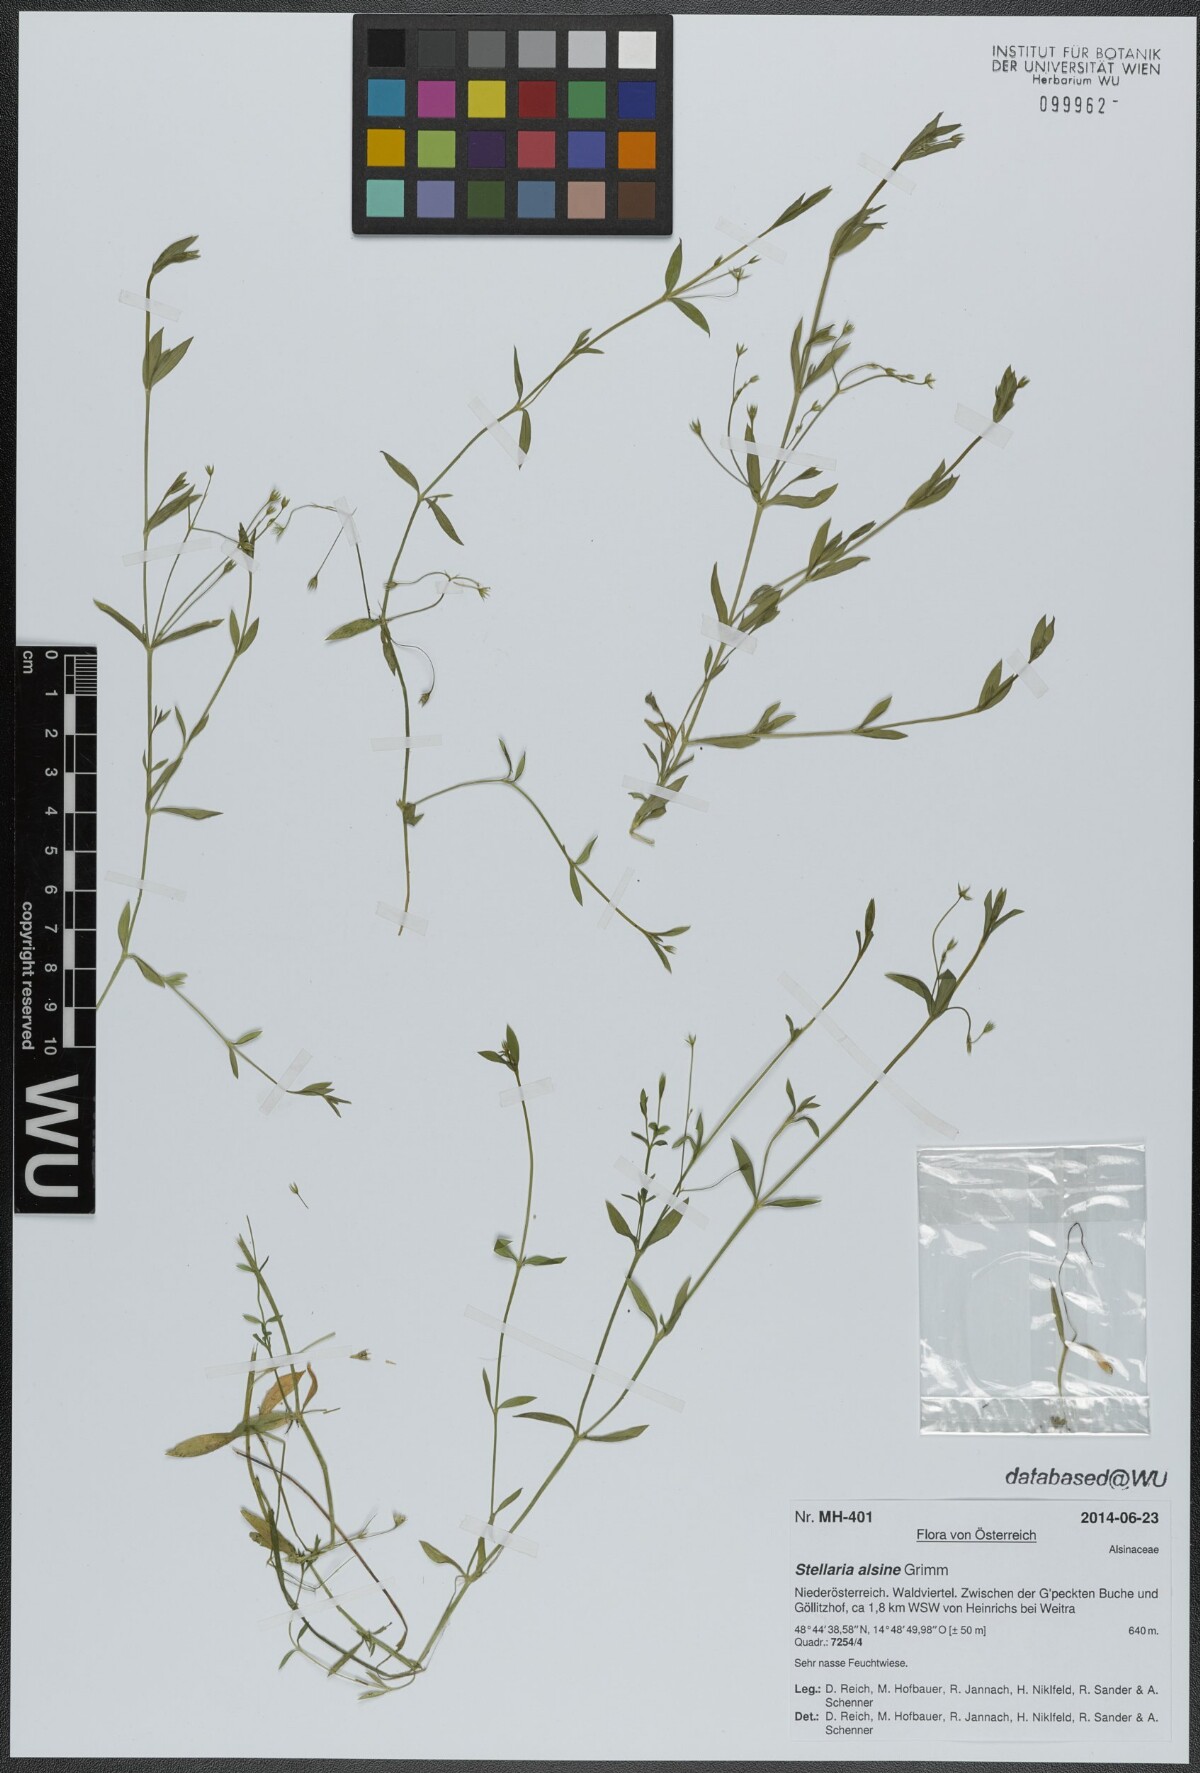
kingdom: Plantae
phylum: Tracheophyta
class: Magnoliopsida
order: Caryophyllales
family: Caryophyllaceae
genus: Stellaria
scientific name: Stellaria alsine
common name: Bog stitchwort
